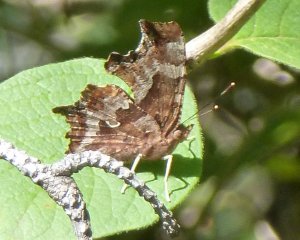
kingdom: Animalia
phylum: Arthropoda
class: Insecta
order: Lepidoptera
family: Nymphalidae
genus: Polygonia
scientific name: Polygonia comma
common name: Eastern Comma
